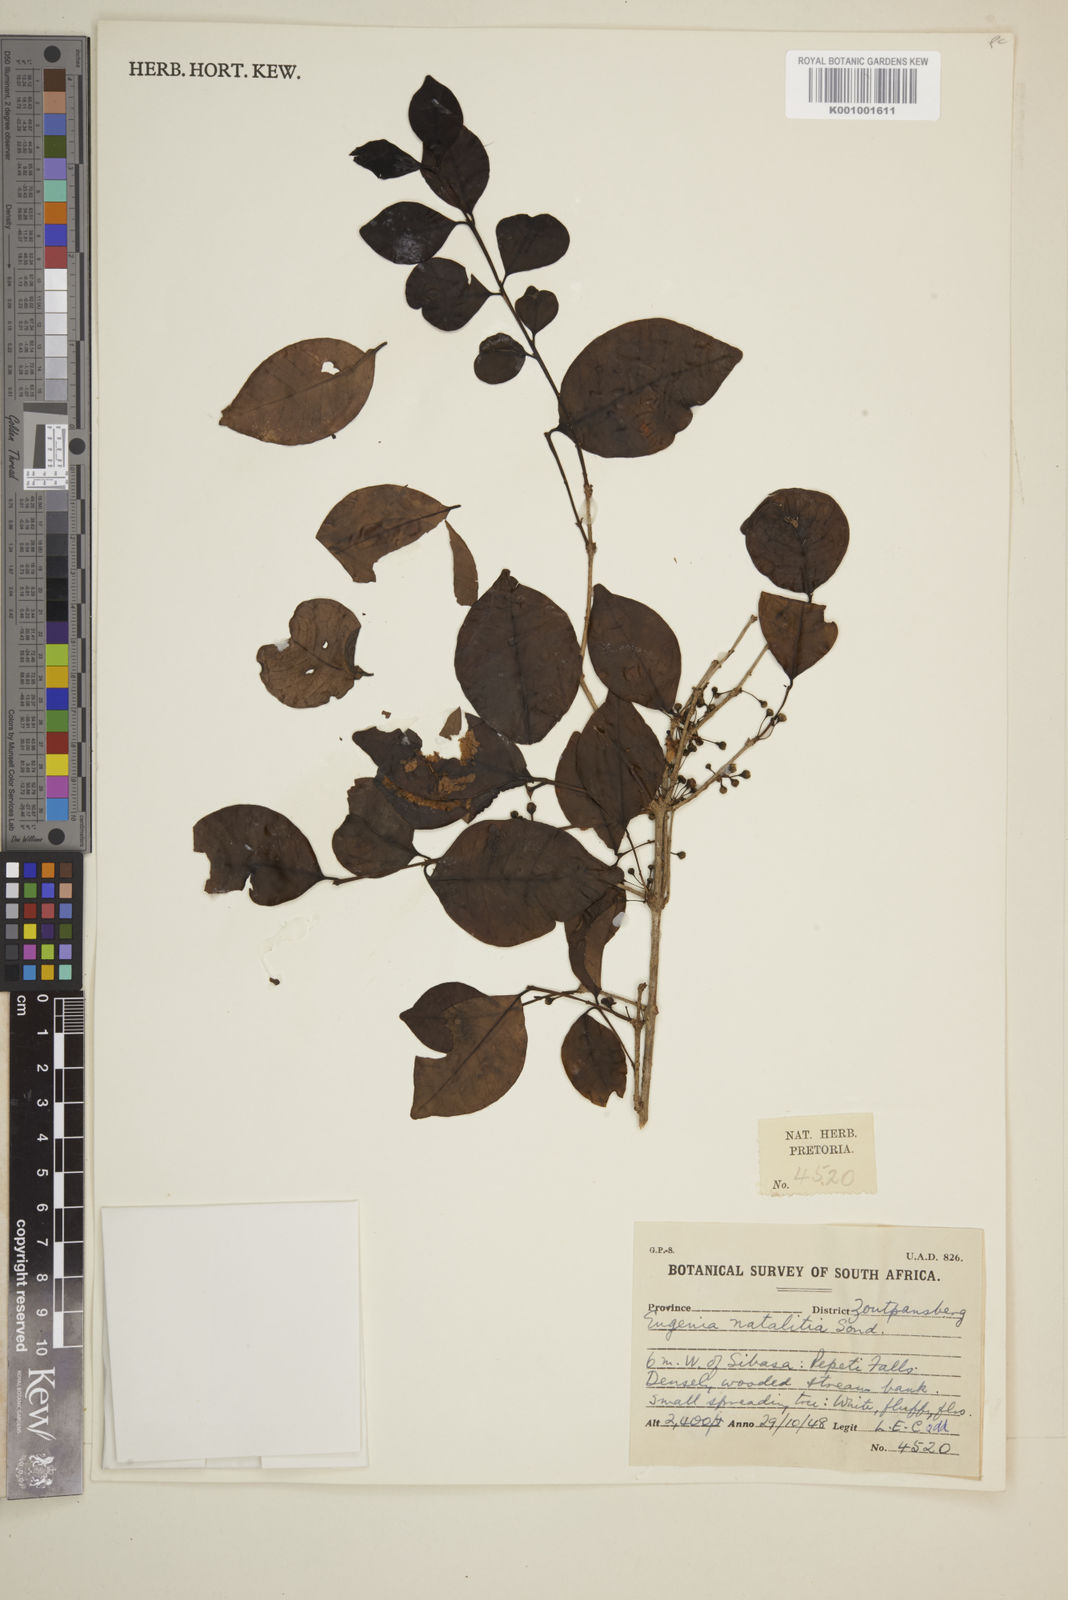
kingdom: Plantae
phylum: Tracheophyta
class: Magnoliopsida
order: Myrtales
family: Myrtaceae
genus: Eugenia
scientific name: Eugenia natalitia
